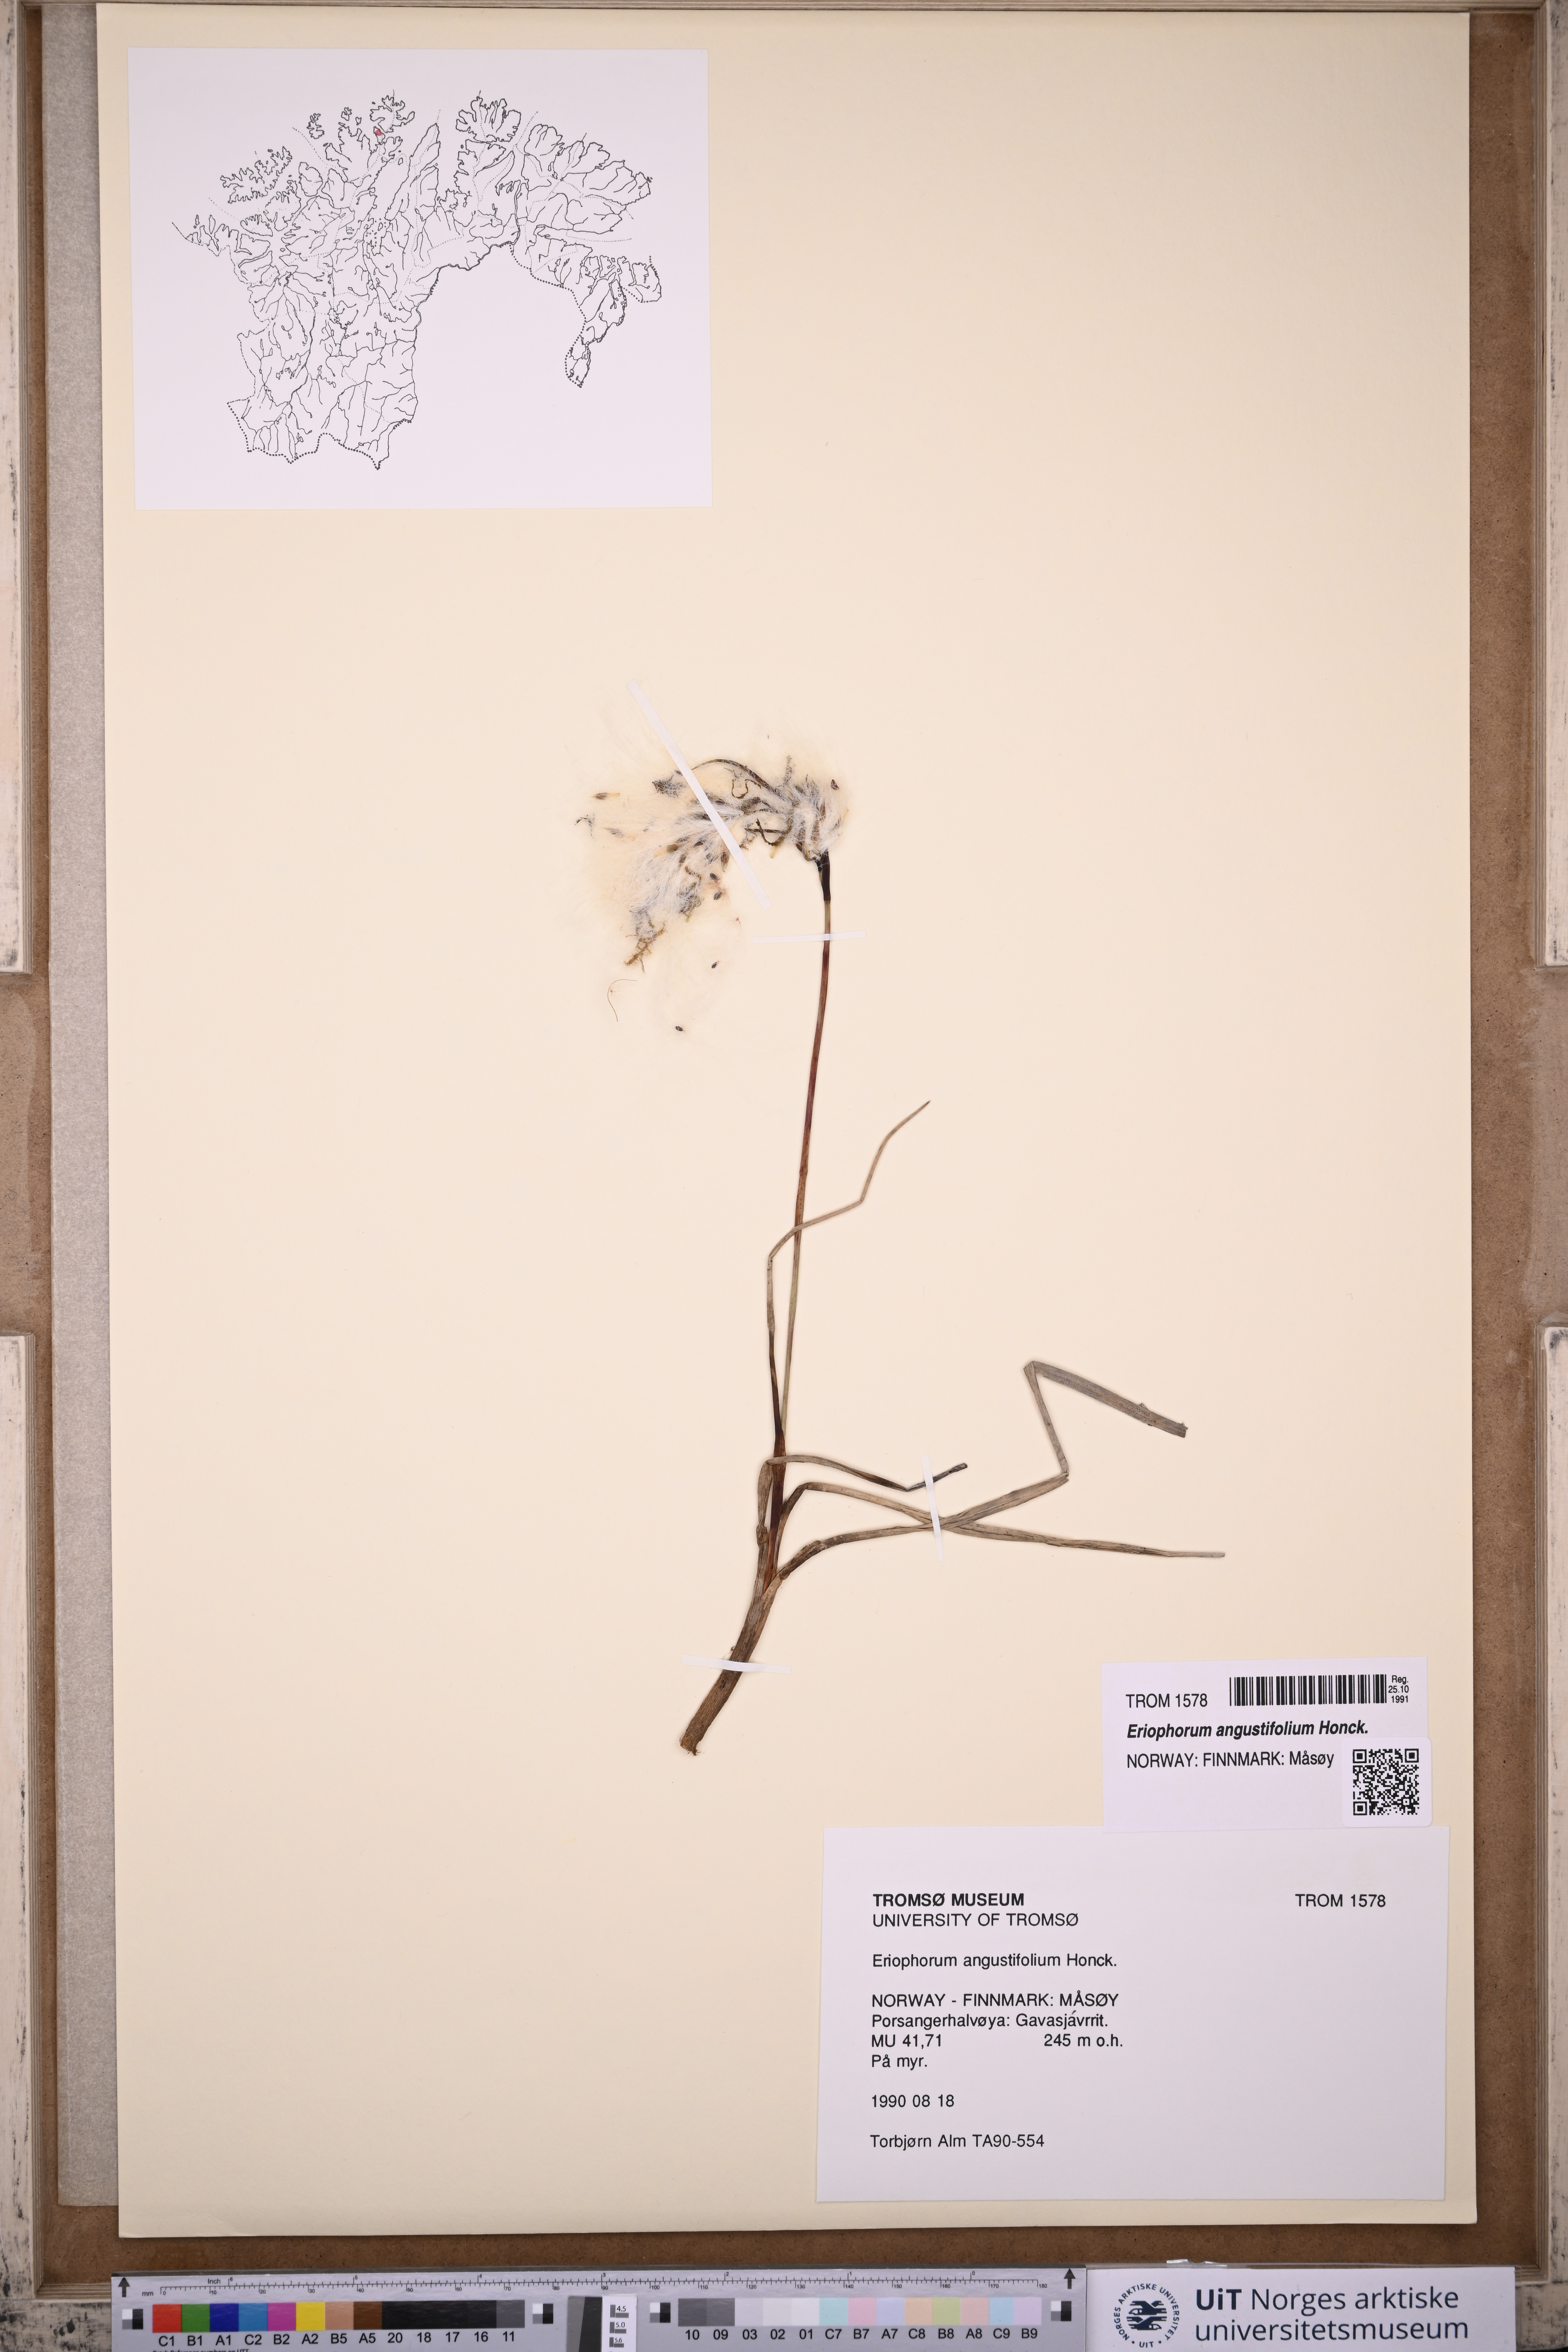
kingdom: Plantae
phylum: Tracheophyta
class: Liliopsida
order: Poales
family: Cyperaceae
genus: Eriophorum
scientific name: Eriophorum angustifolium
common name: Common cottongrass
